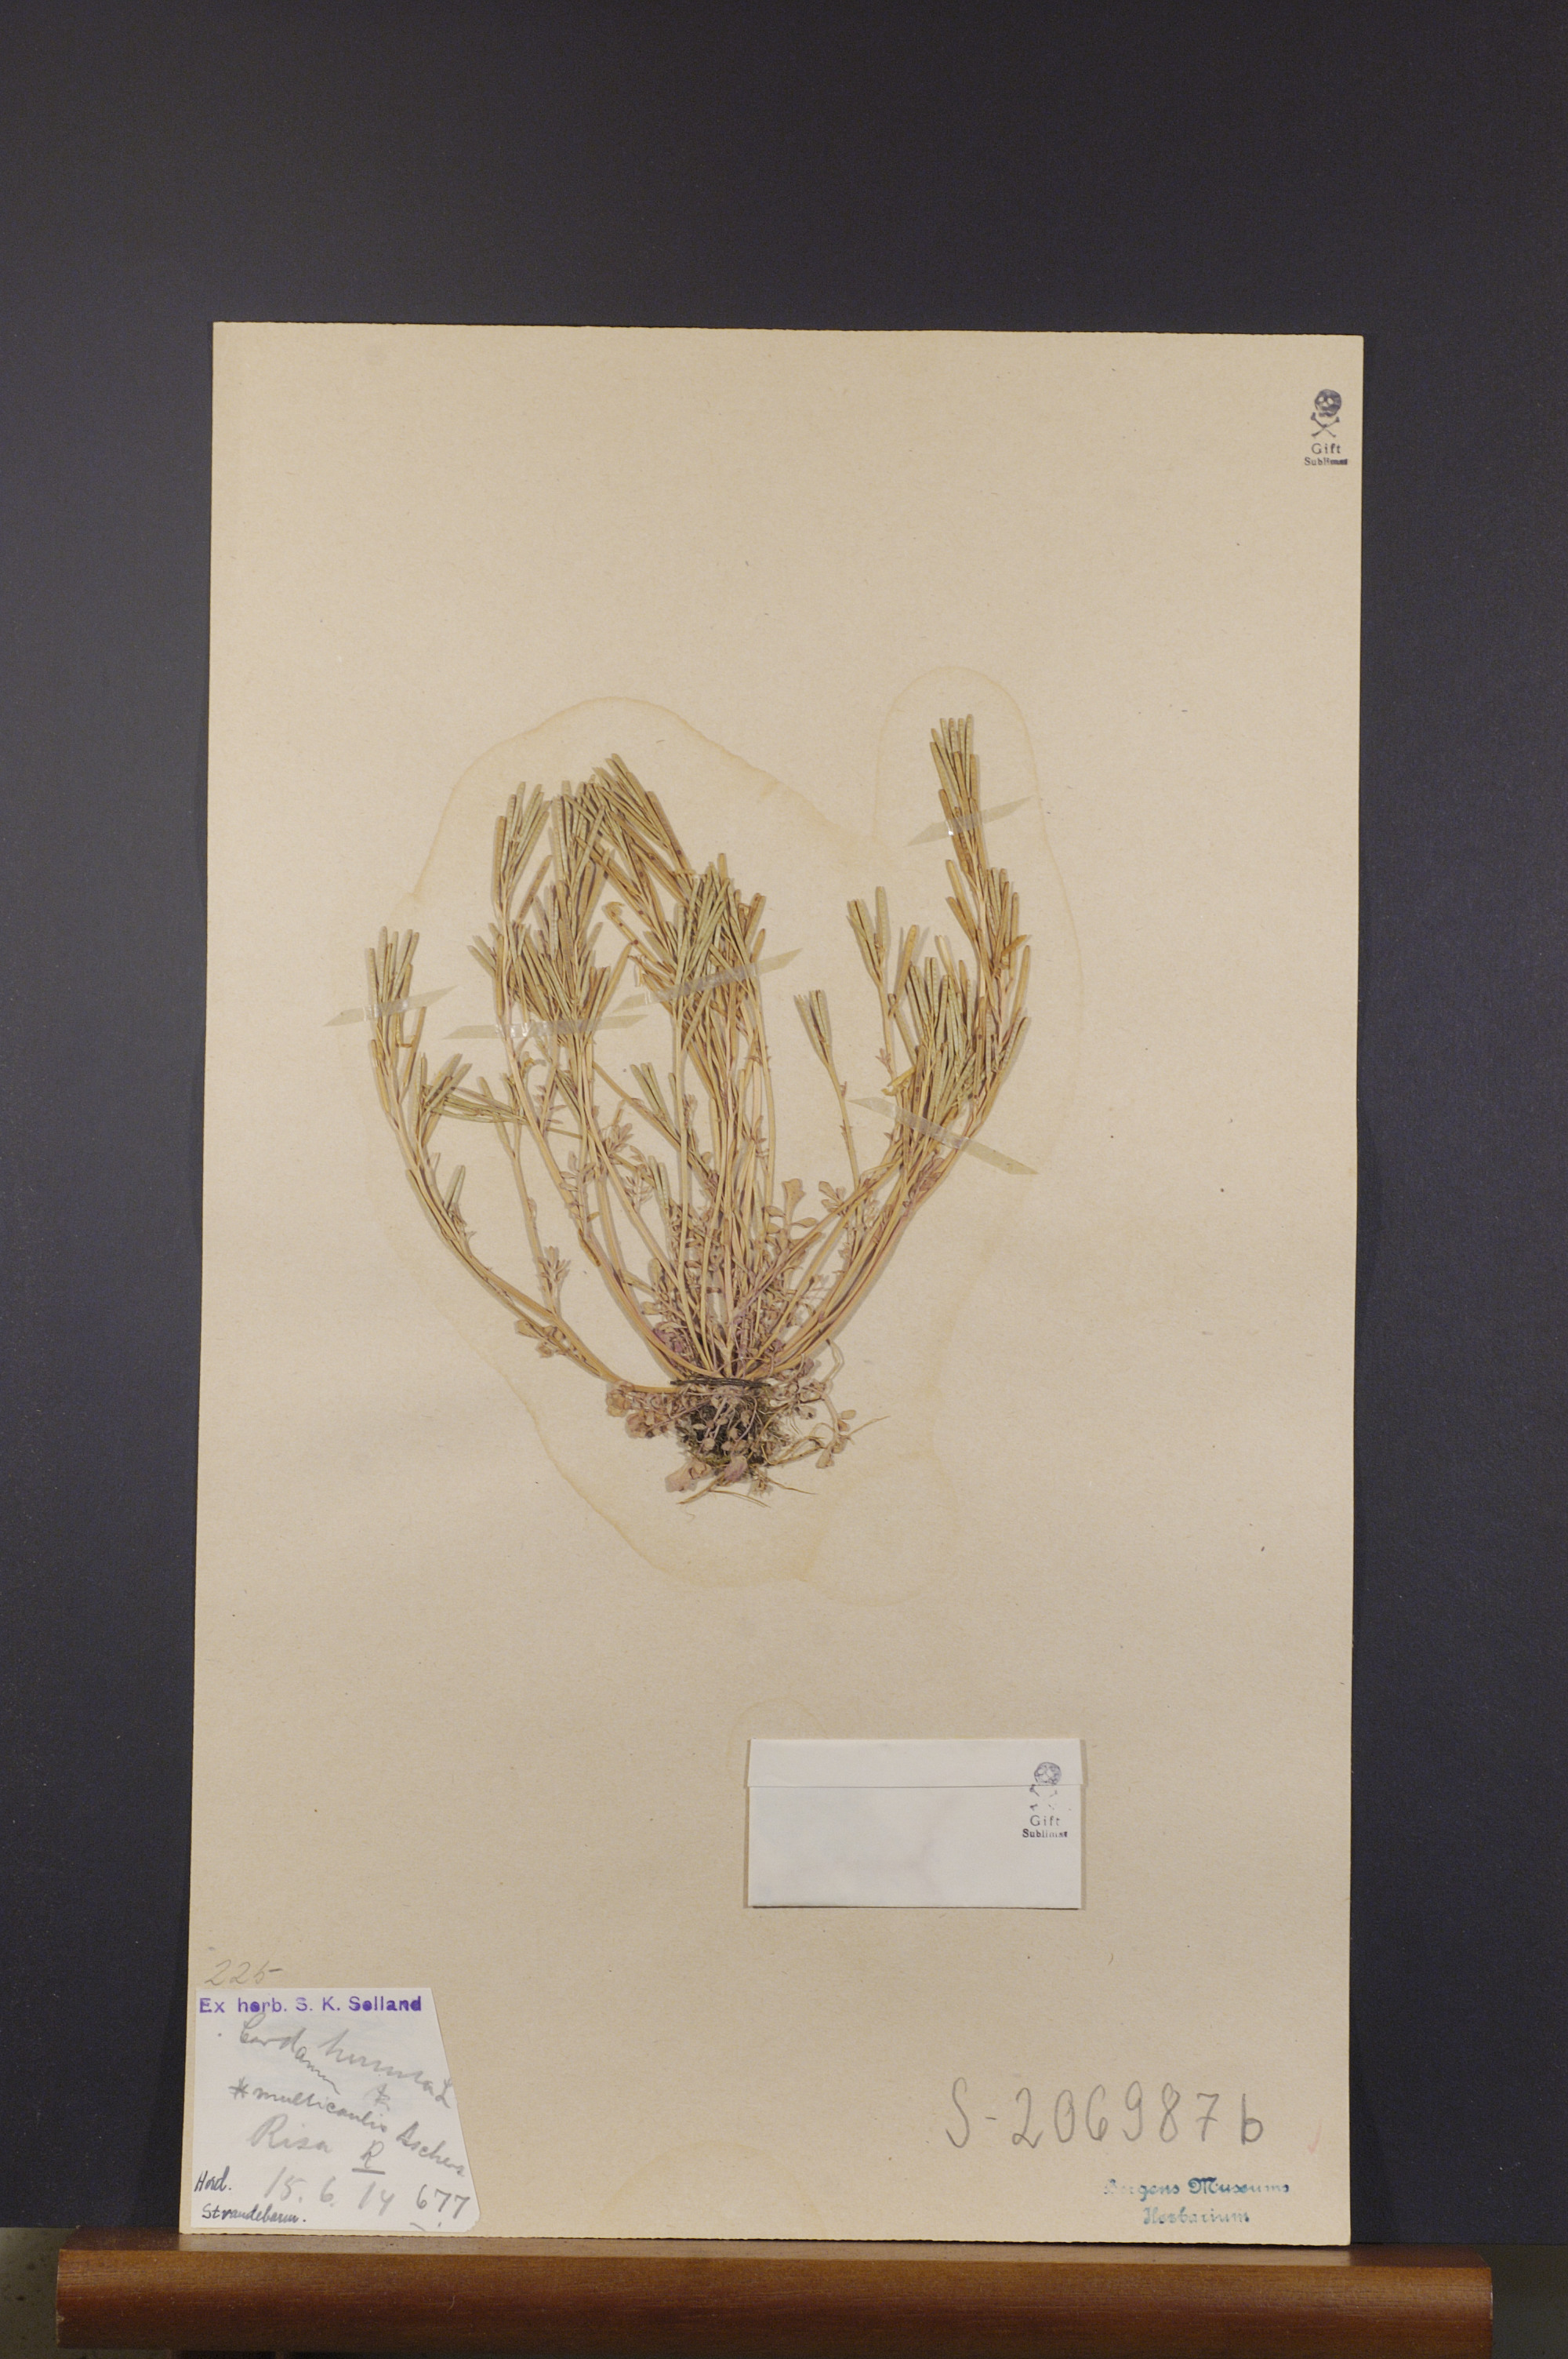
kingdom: Plantae
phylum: Tracheophyta
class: Magnoliopsida
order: Brassicales
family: Brassicaceae
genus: Cardamine
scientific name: Cardamine hirsuta
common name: Hairy bittercress
